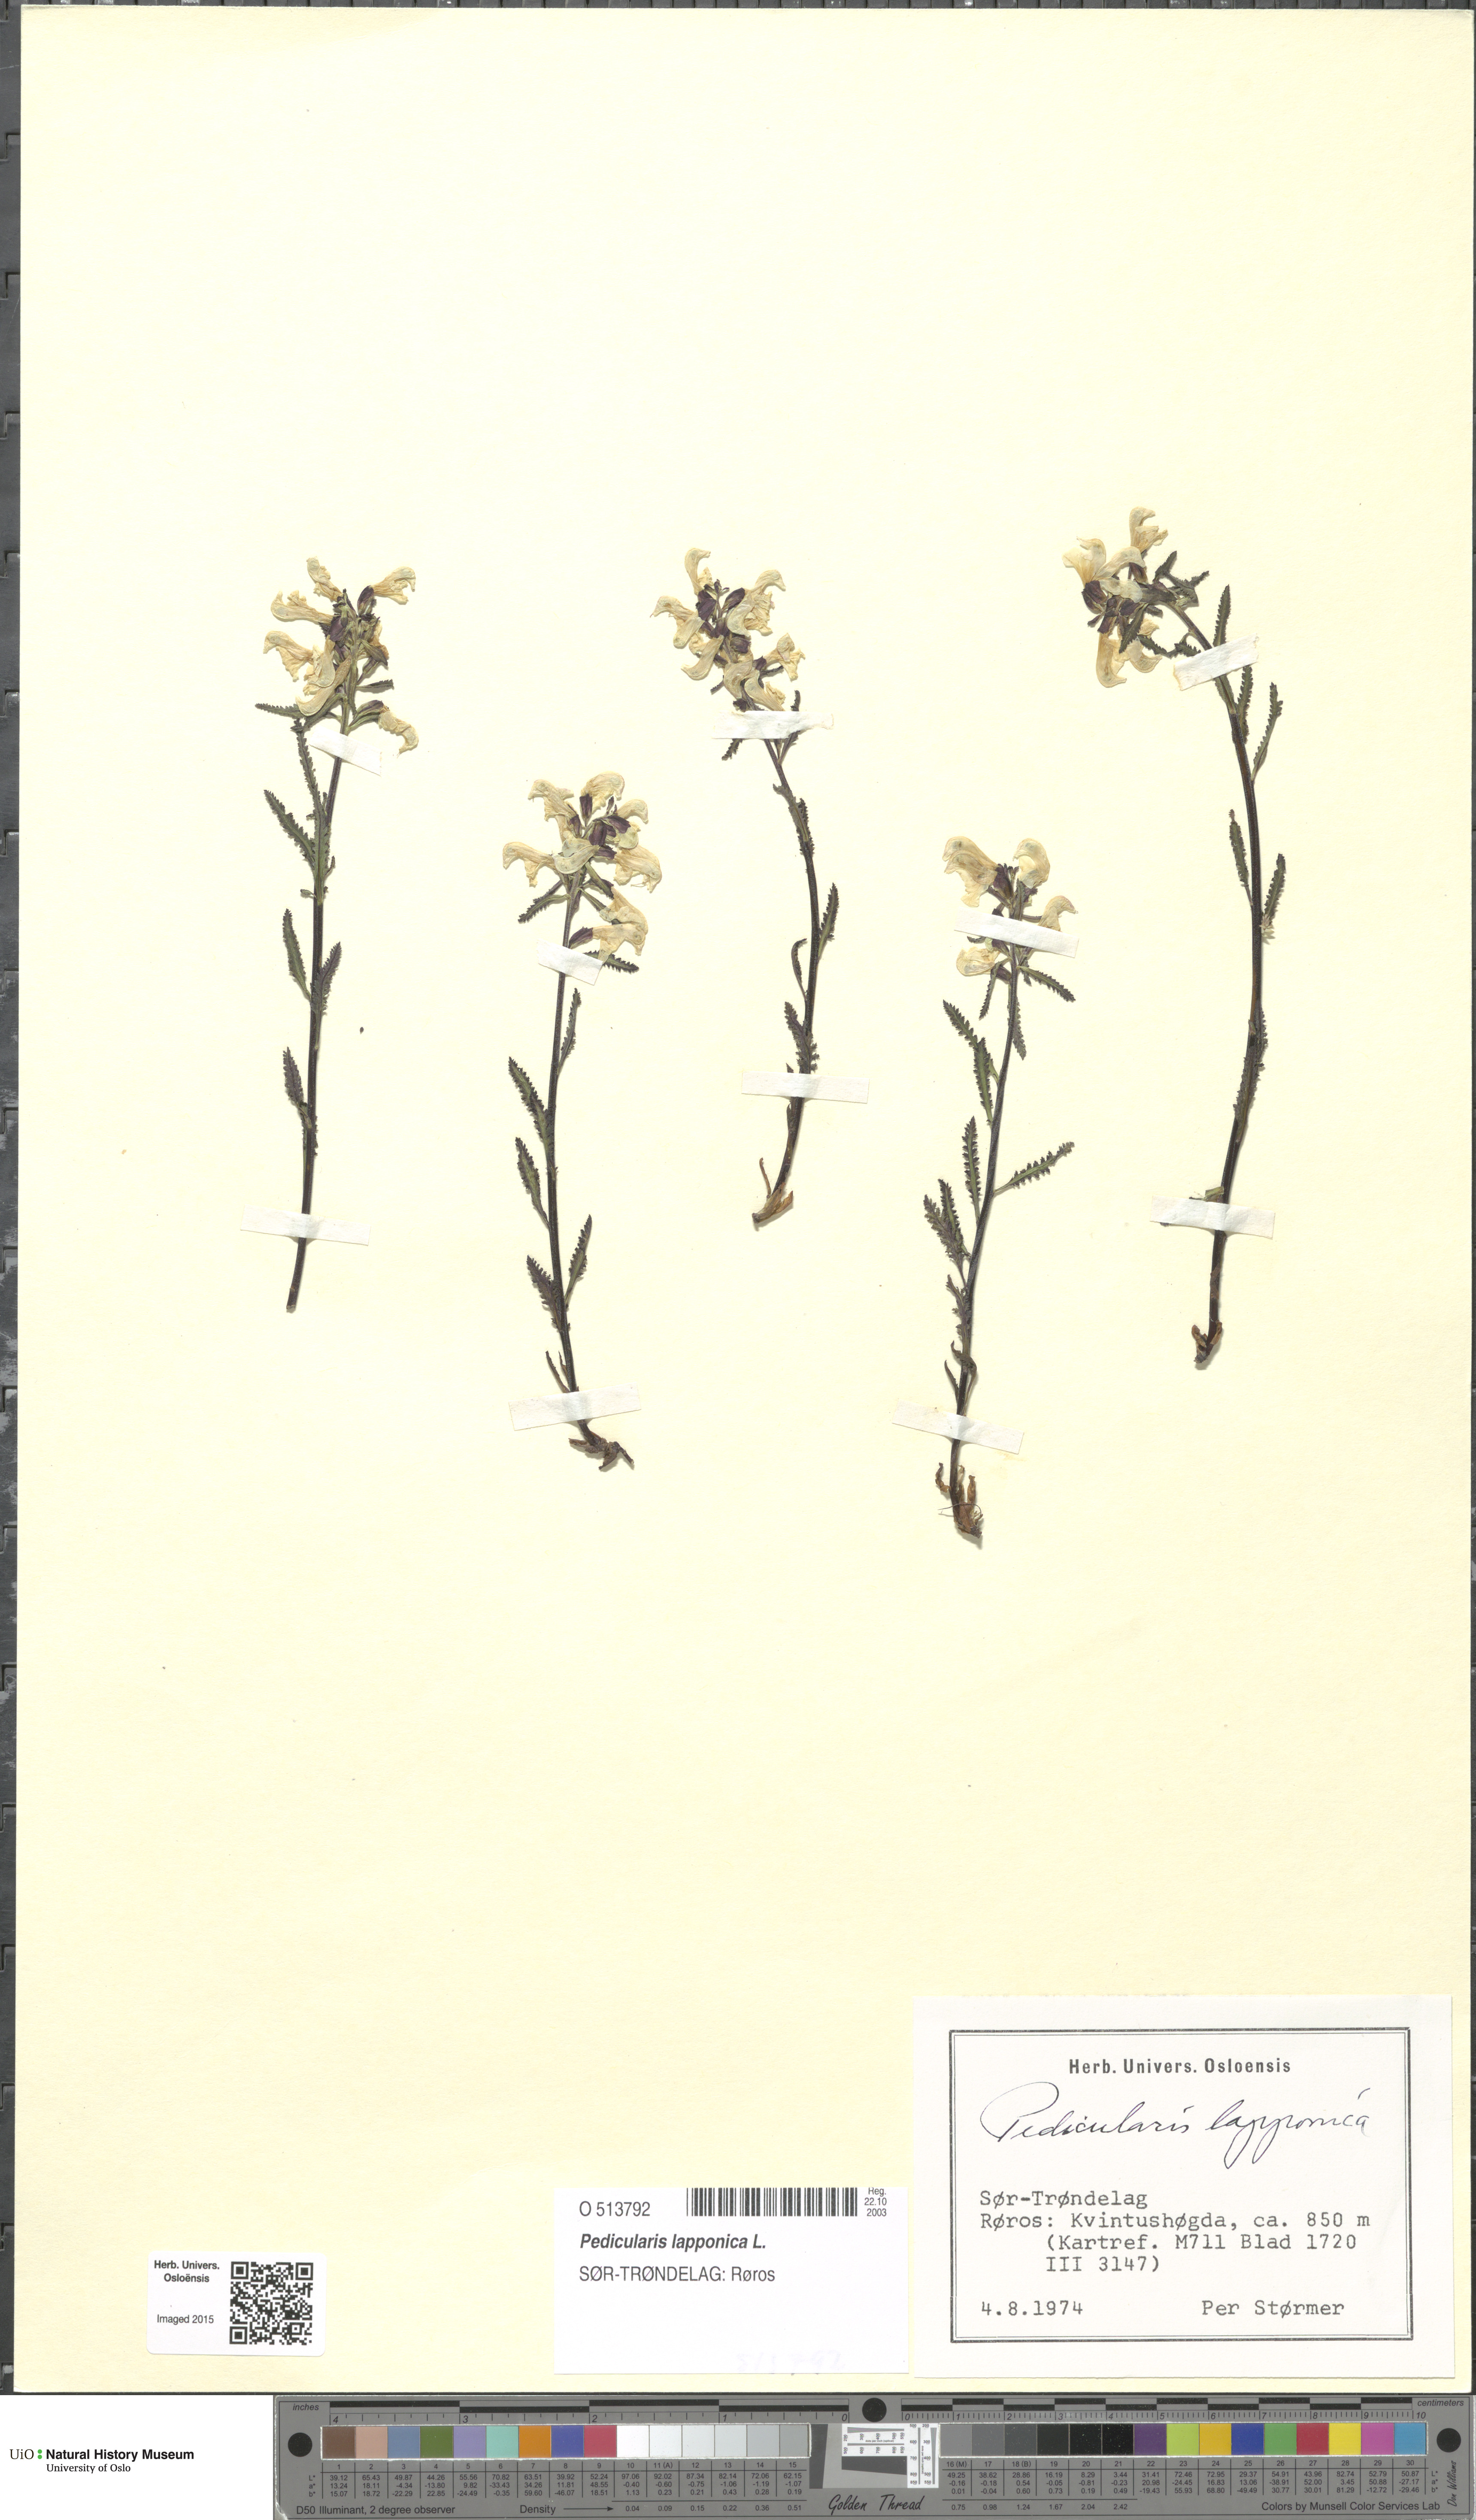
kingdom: Plantae
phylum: Tracheophyta
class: Magnoliopsida
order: Lamiales
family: Orobanchaceae
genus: Pedicularis
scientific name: Pedicularis lapponica
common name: Lapland lousewort
